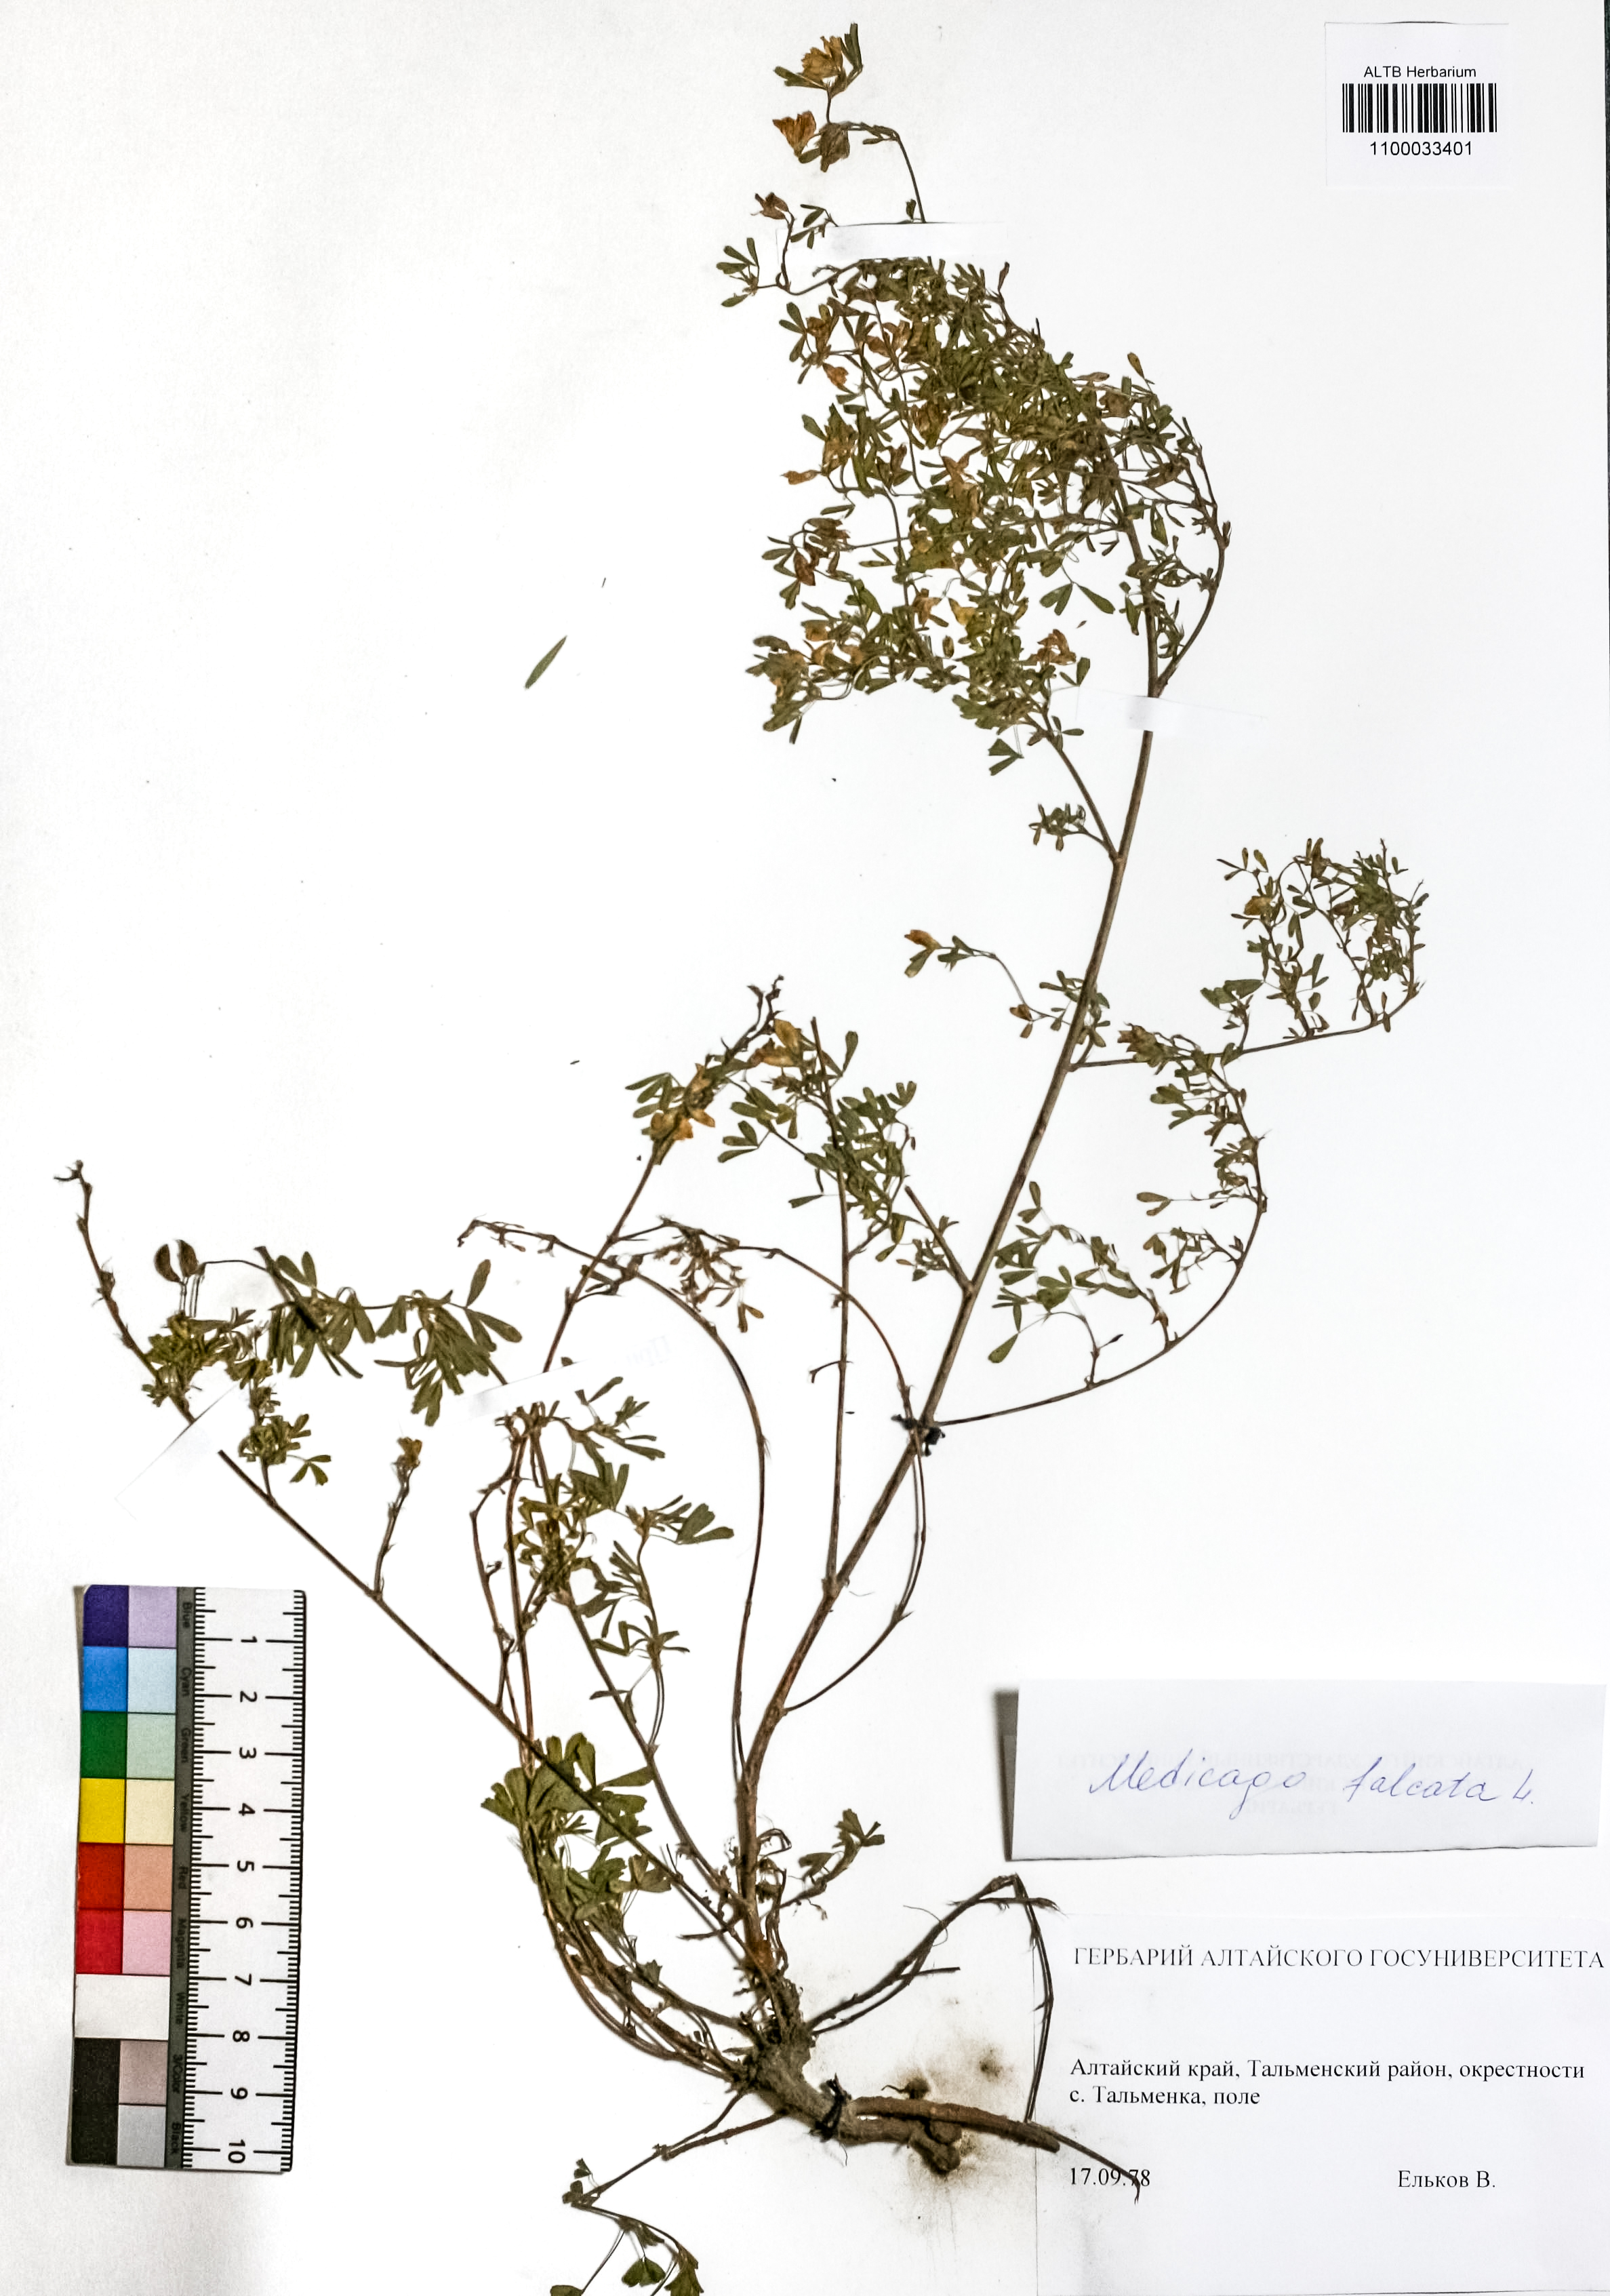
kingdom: Plantae
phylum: Tracheophyta
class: Magnoliopsida
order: Fabales
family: Fabaceae
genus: Medicago
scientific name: Medicago falcata
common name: Sickle medick
